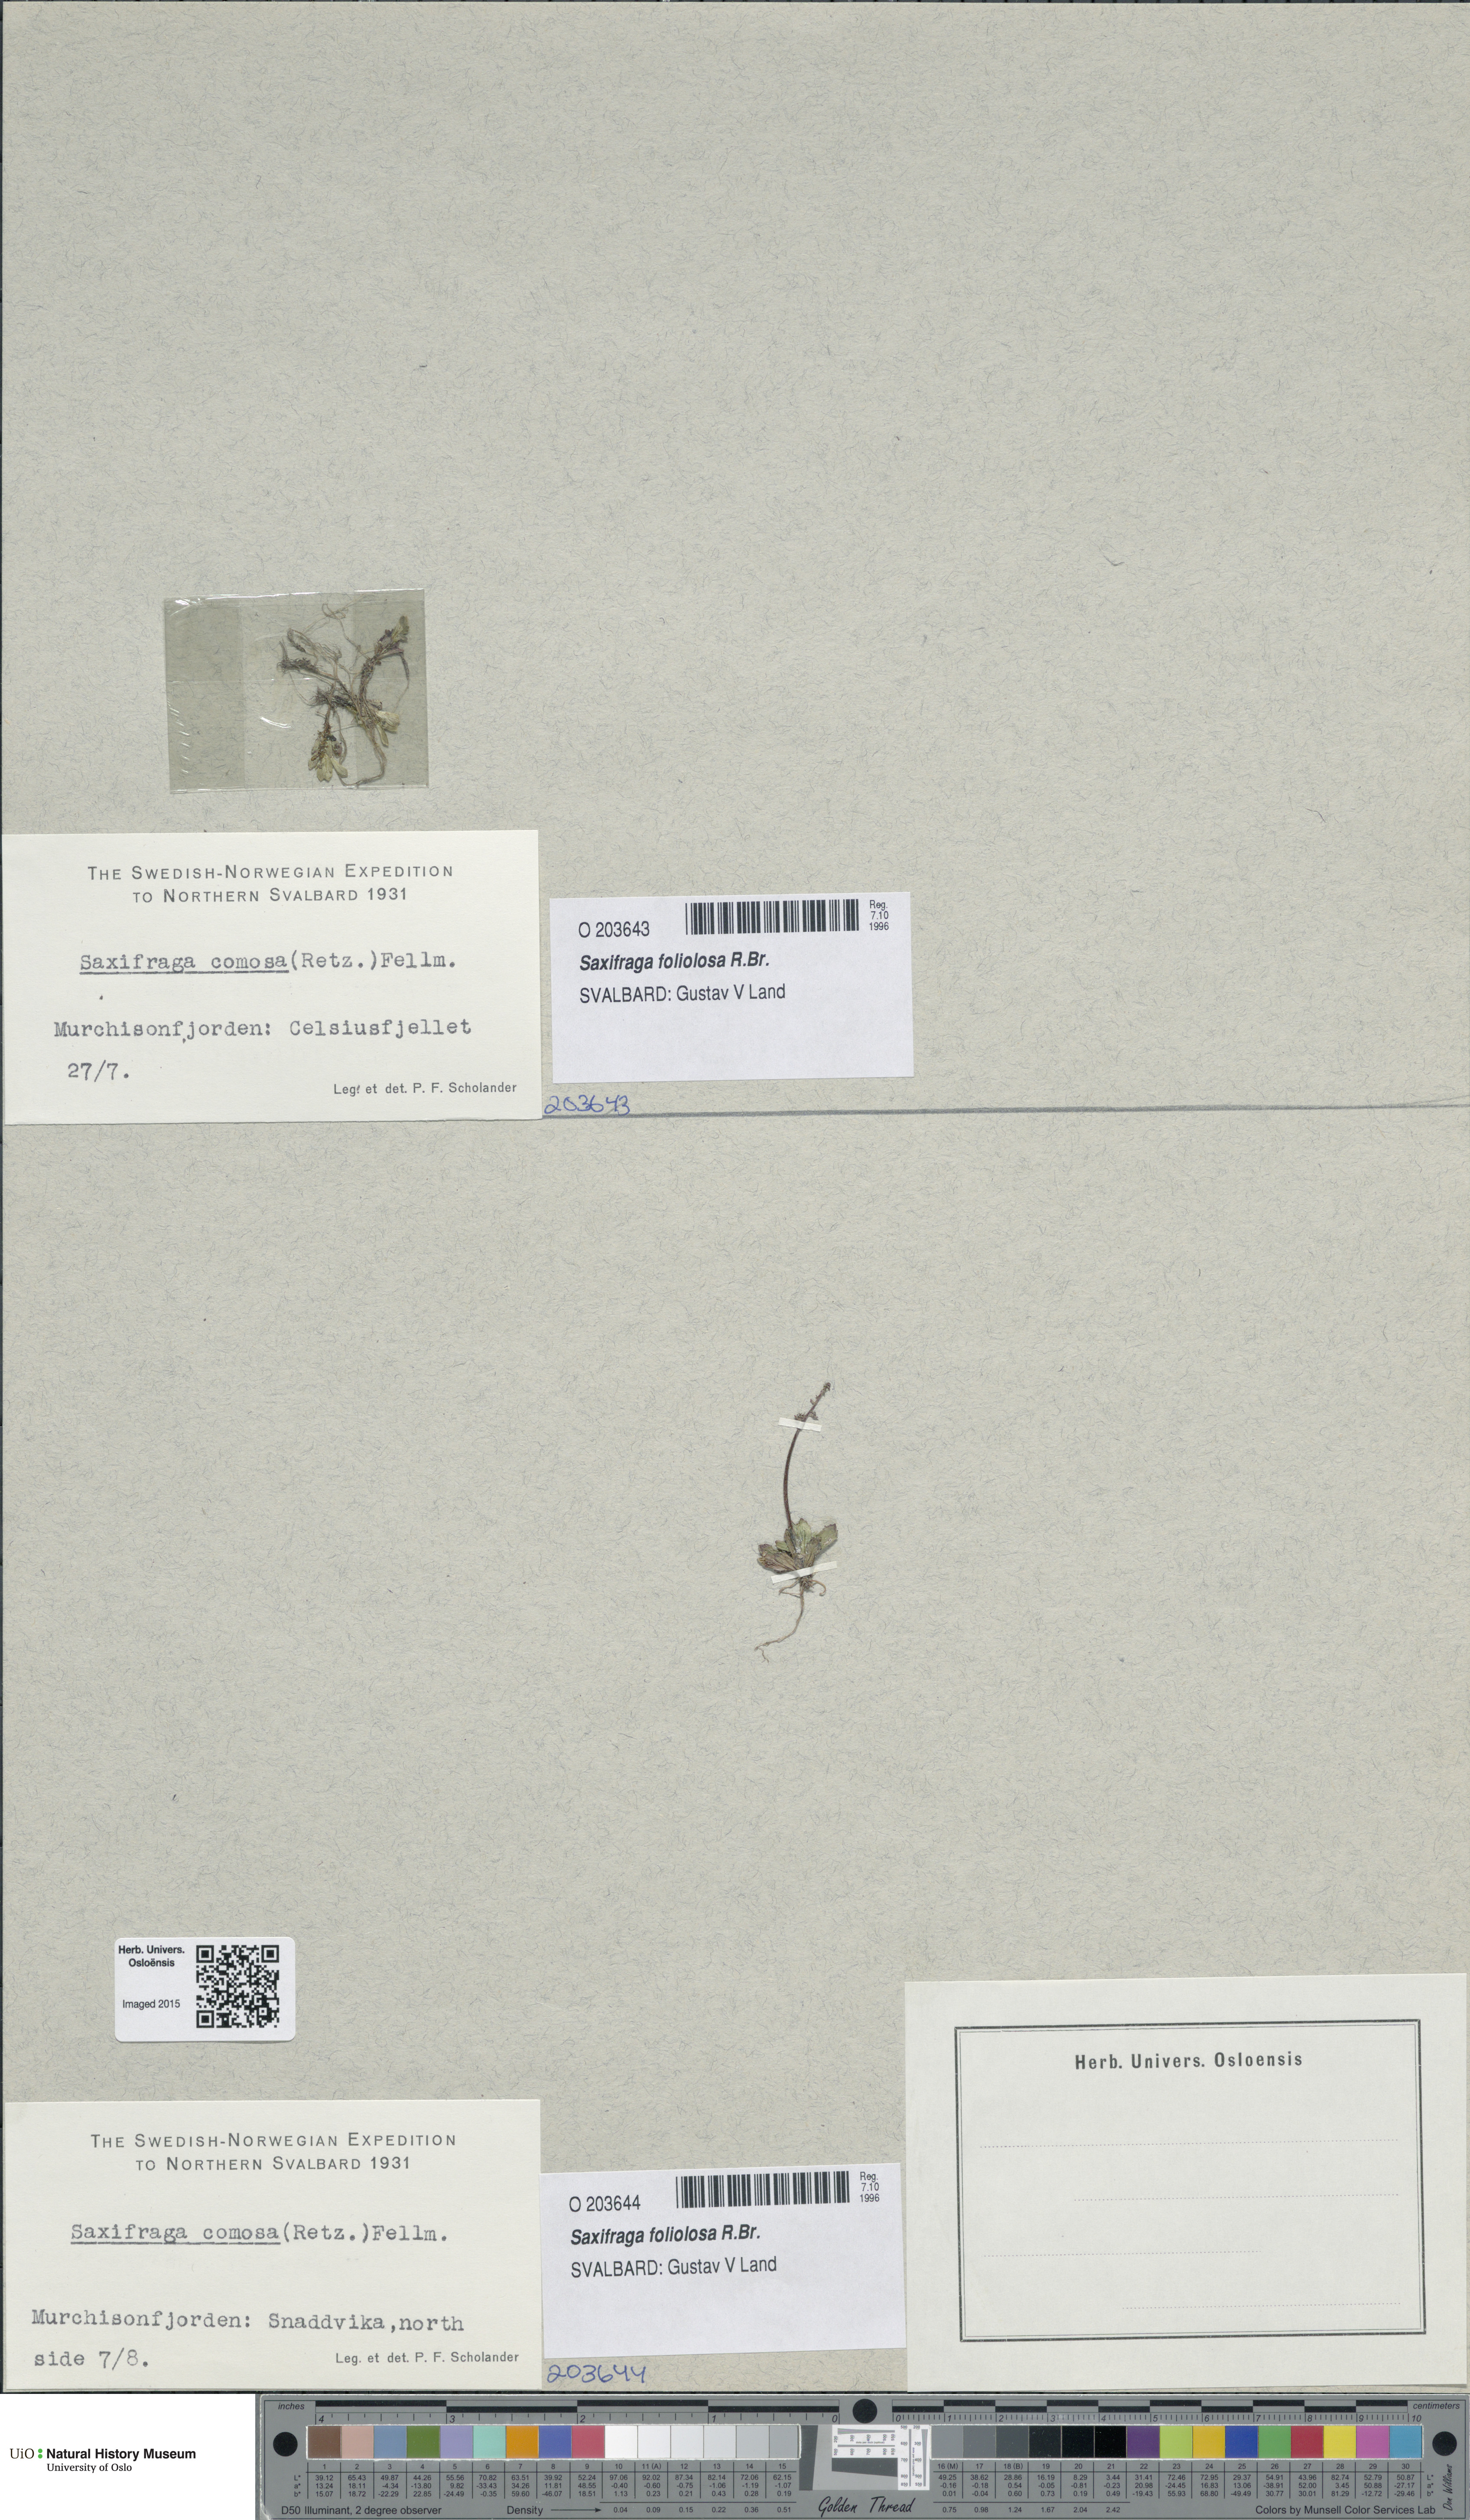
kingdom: Plantae
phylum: Tracheophyta
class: Magnoliopsida
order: Saxifragales
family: Saxifragaceae
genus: Micranthes
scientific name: Micranthes foliolosa
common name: Leafystem saxifrage
